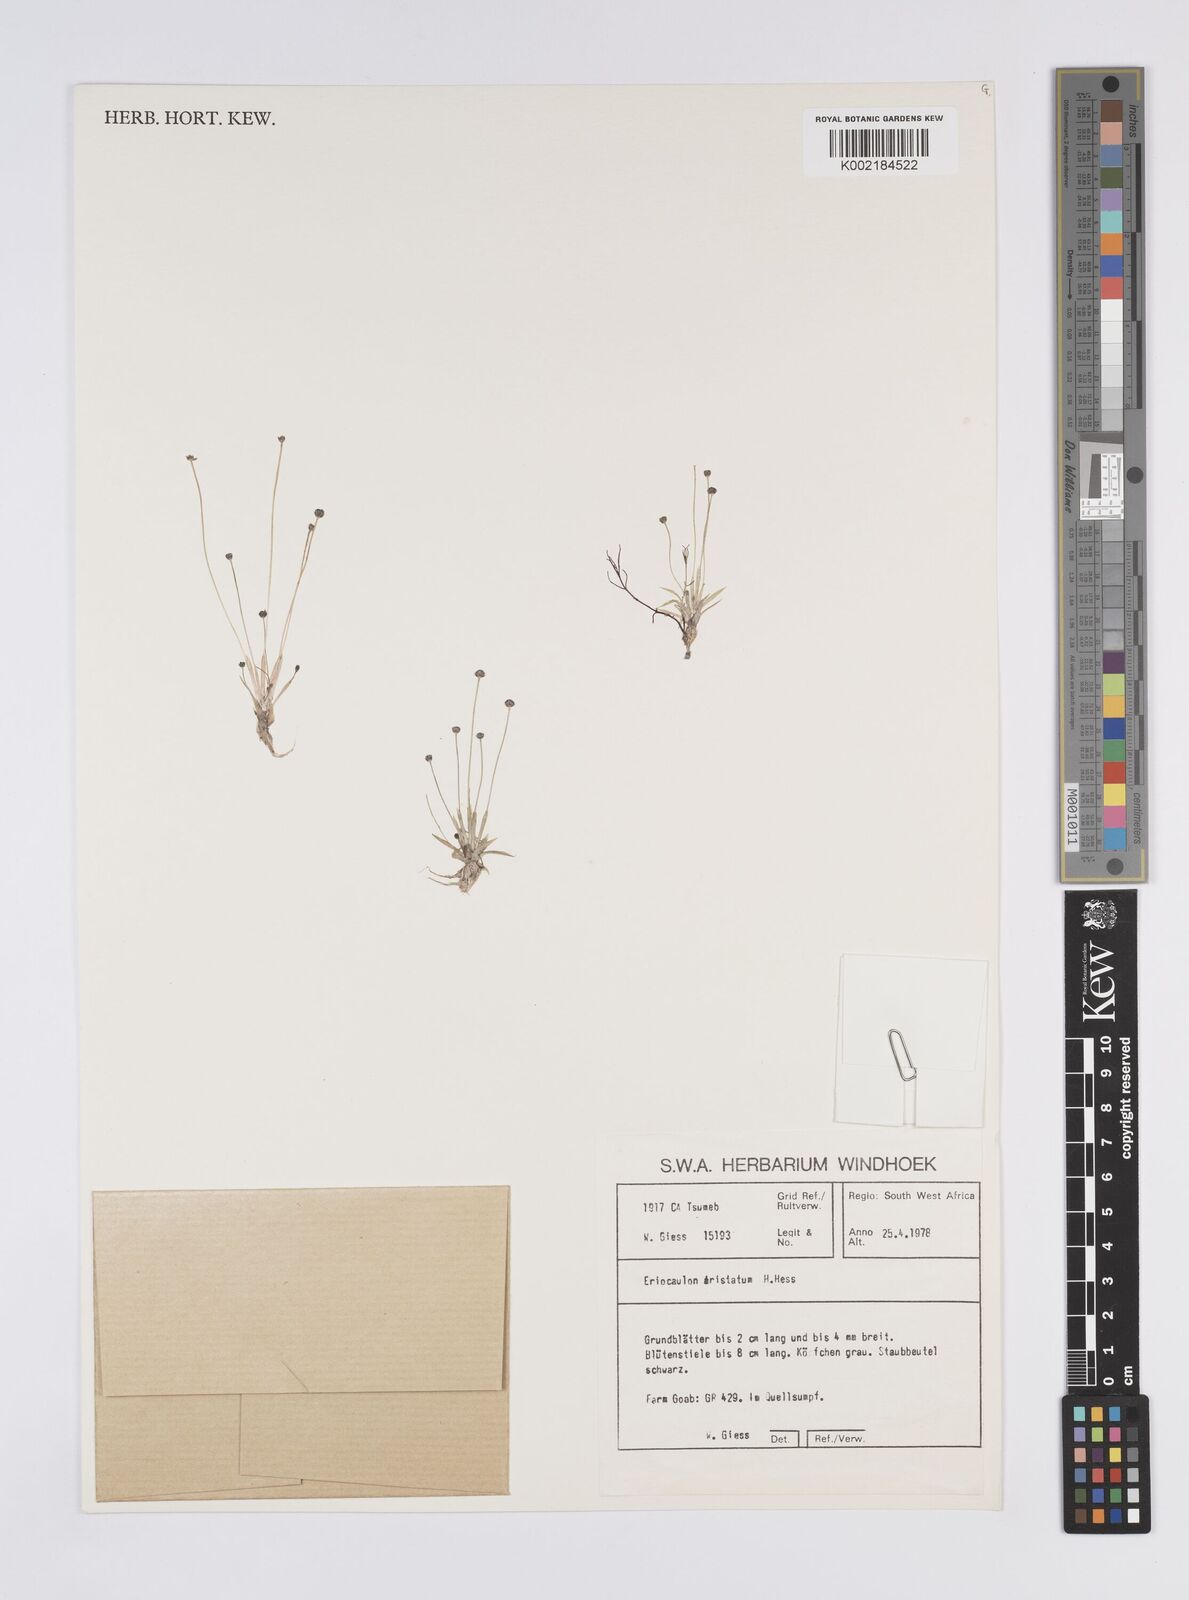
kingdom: Plantae
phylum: Tracheophyta
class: Liliopsida
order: Poales
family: Eriocaulaceae
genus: Eriocaulon
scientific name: Eriocaulon welwitschii
